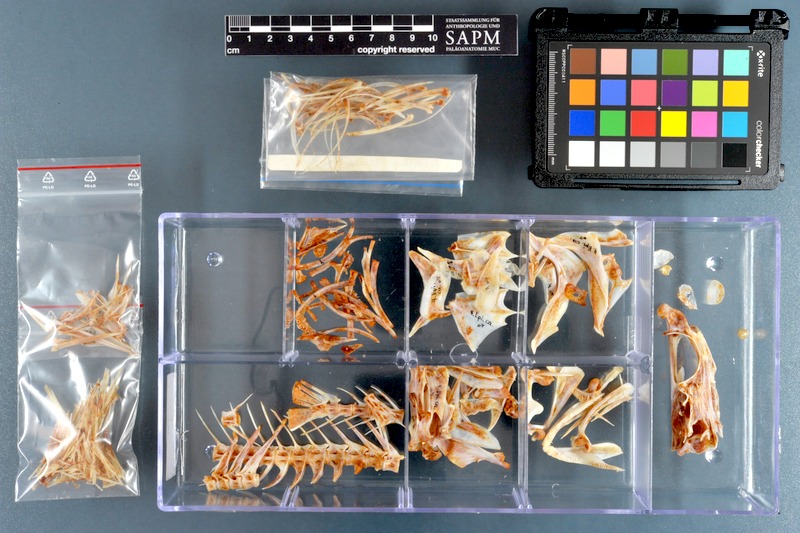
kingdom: Animalia
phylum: Chordata
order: Perciformes
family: Serranidae
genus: Epinephelus
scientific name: Epinephelus coeruleopunctatus
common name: Whitespotted grouper
